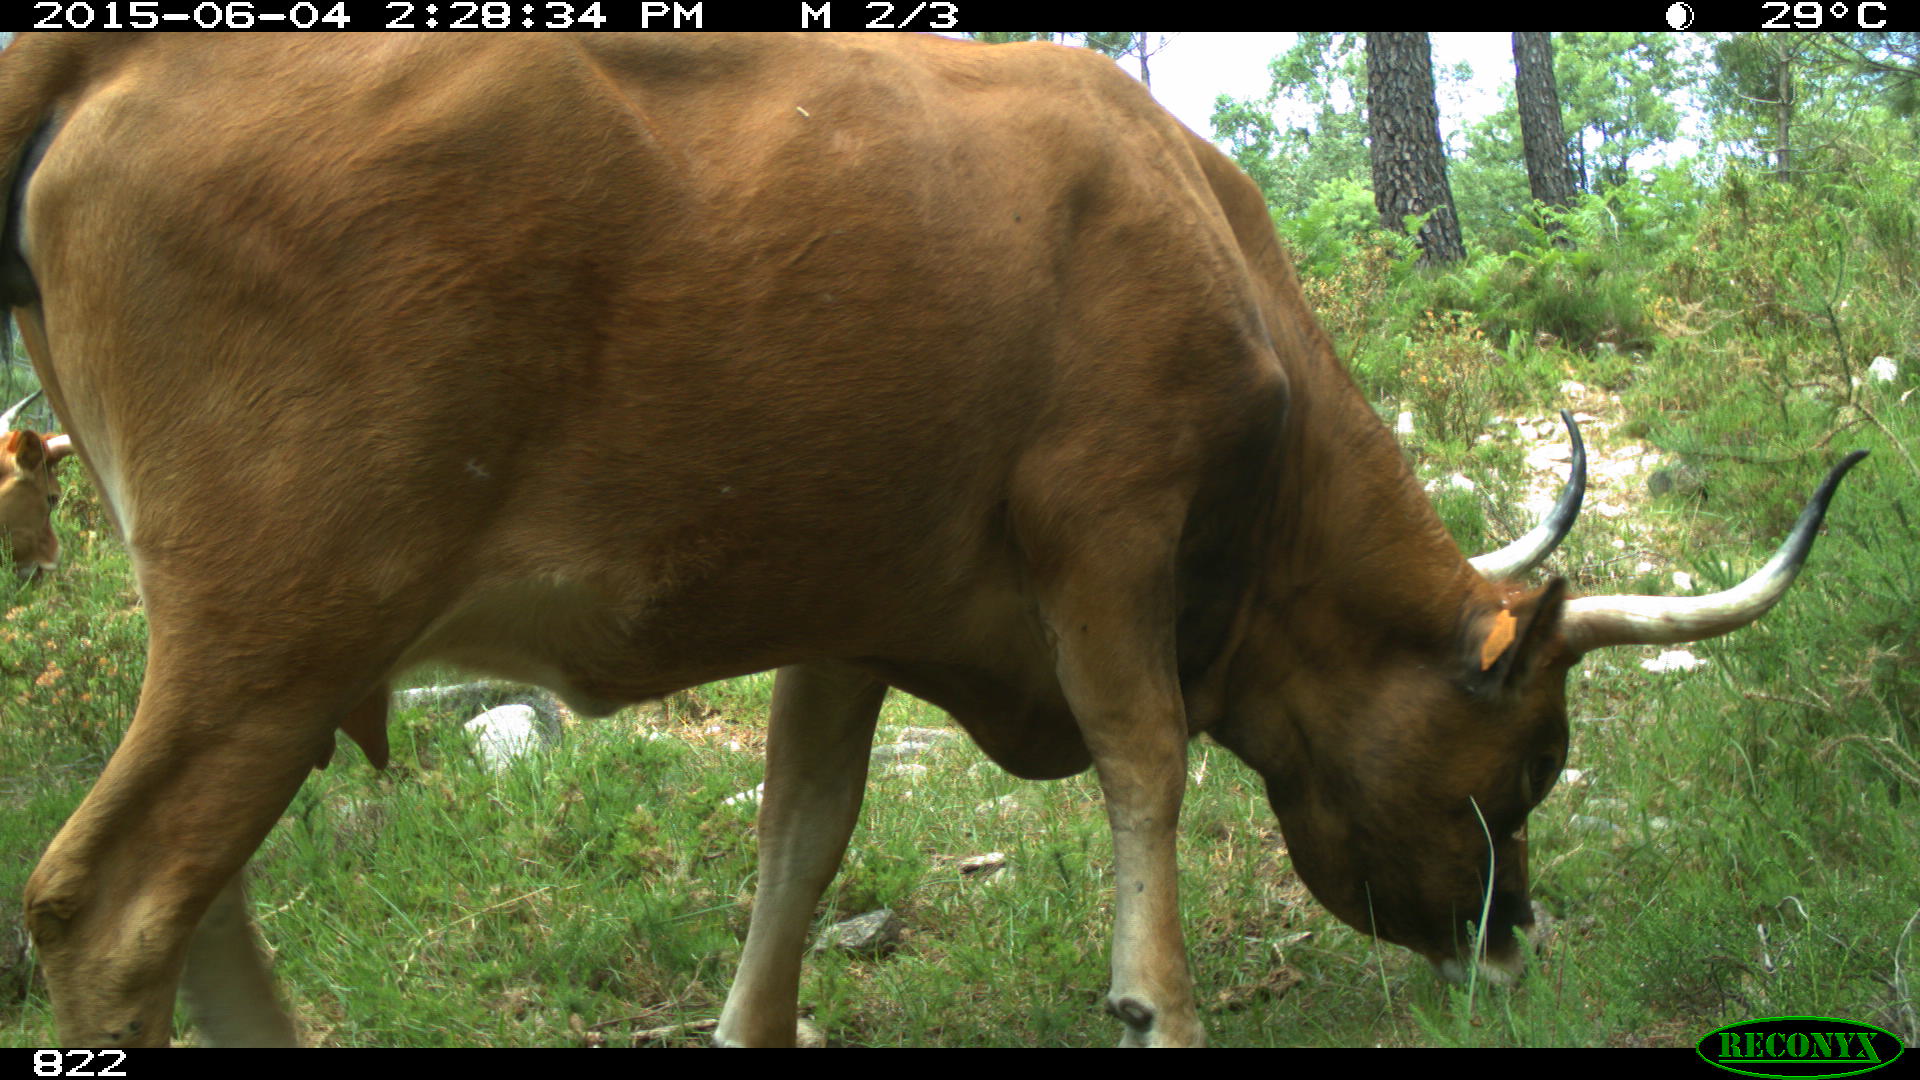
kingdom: Animalia
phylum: Chordata
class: Mammalia
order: Artiodactyla
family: Bovidae
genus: Bos
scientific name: Bos taurus
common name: Domesticated cattle
